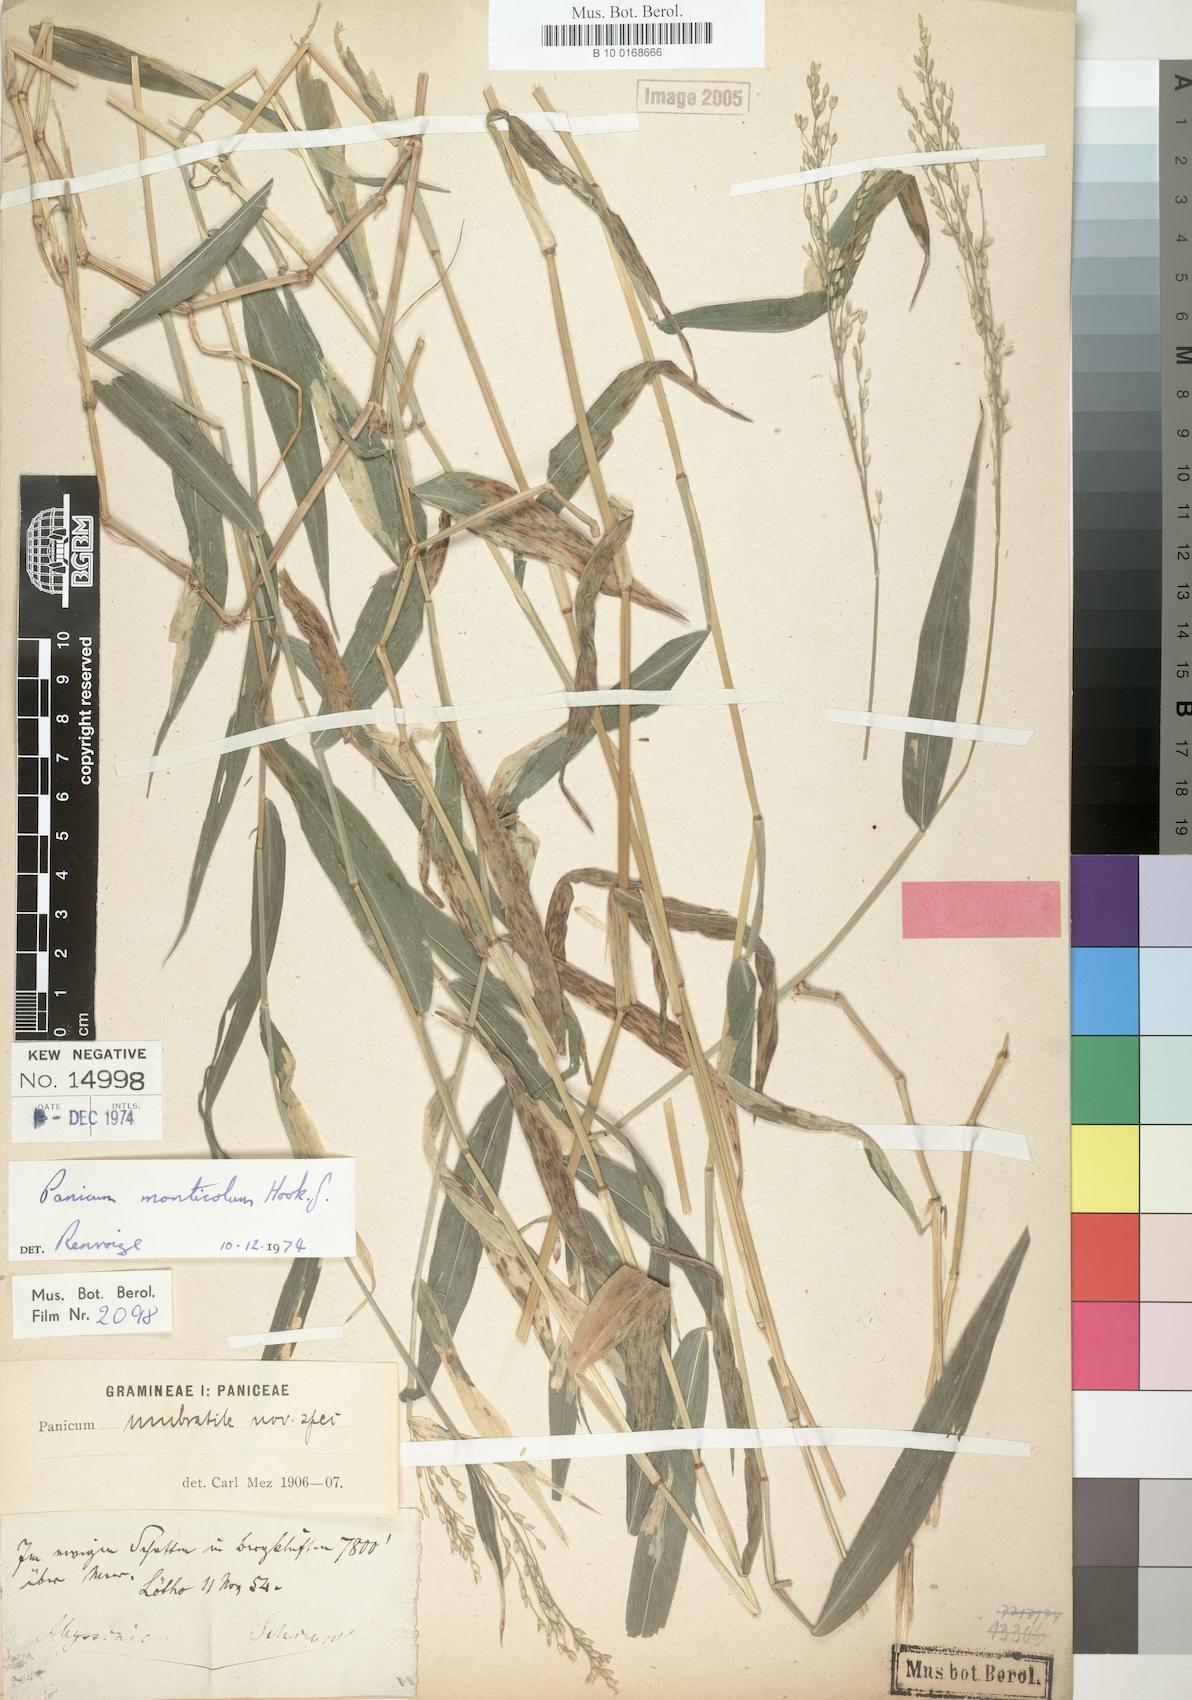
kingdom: Plantae
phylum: Tracheophyta
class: Liliopsida
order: Poales
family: Poaceae
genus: Panicum
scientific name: Panicum monticola
